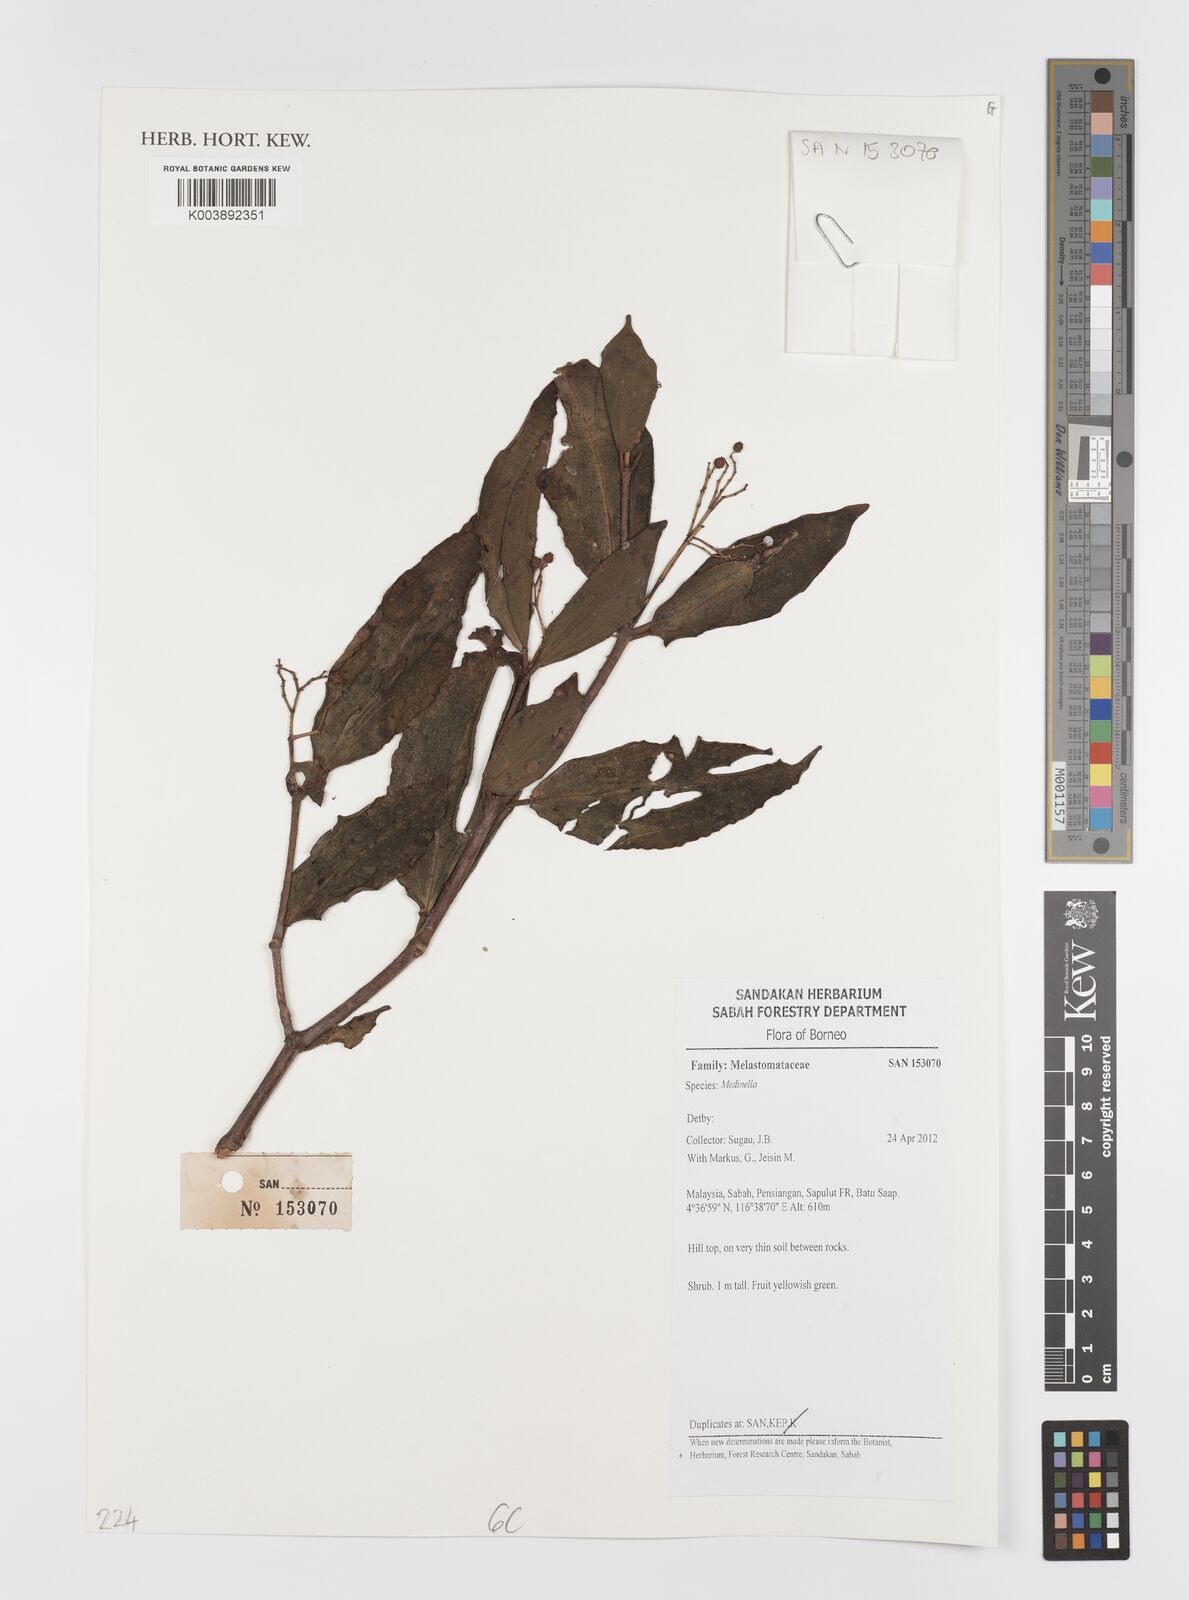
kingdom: Plantae
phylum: Tracheophyta
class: Magnoliopsida
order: Myrtales
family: Melastomataceae
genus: Medinilla
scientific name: Medinilla
